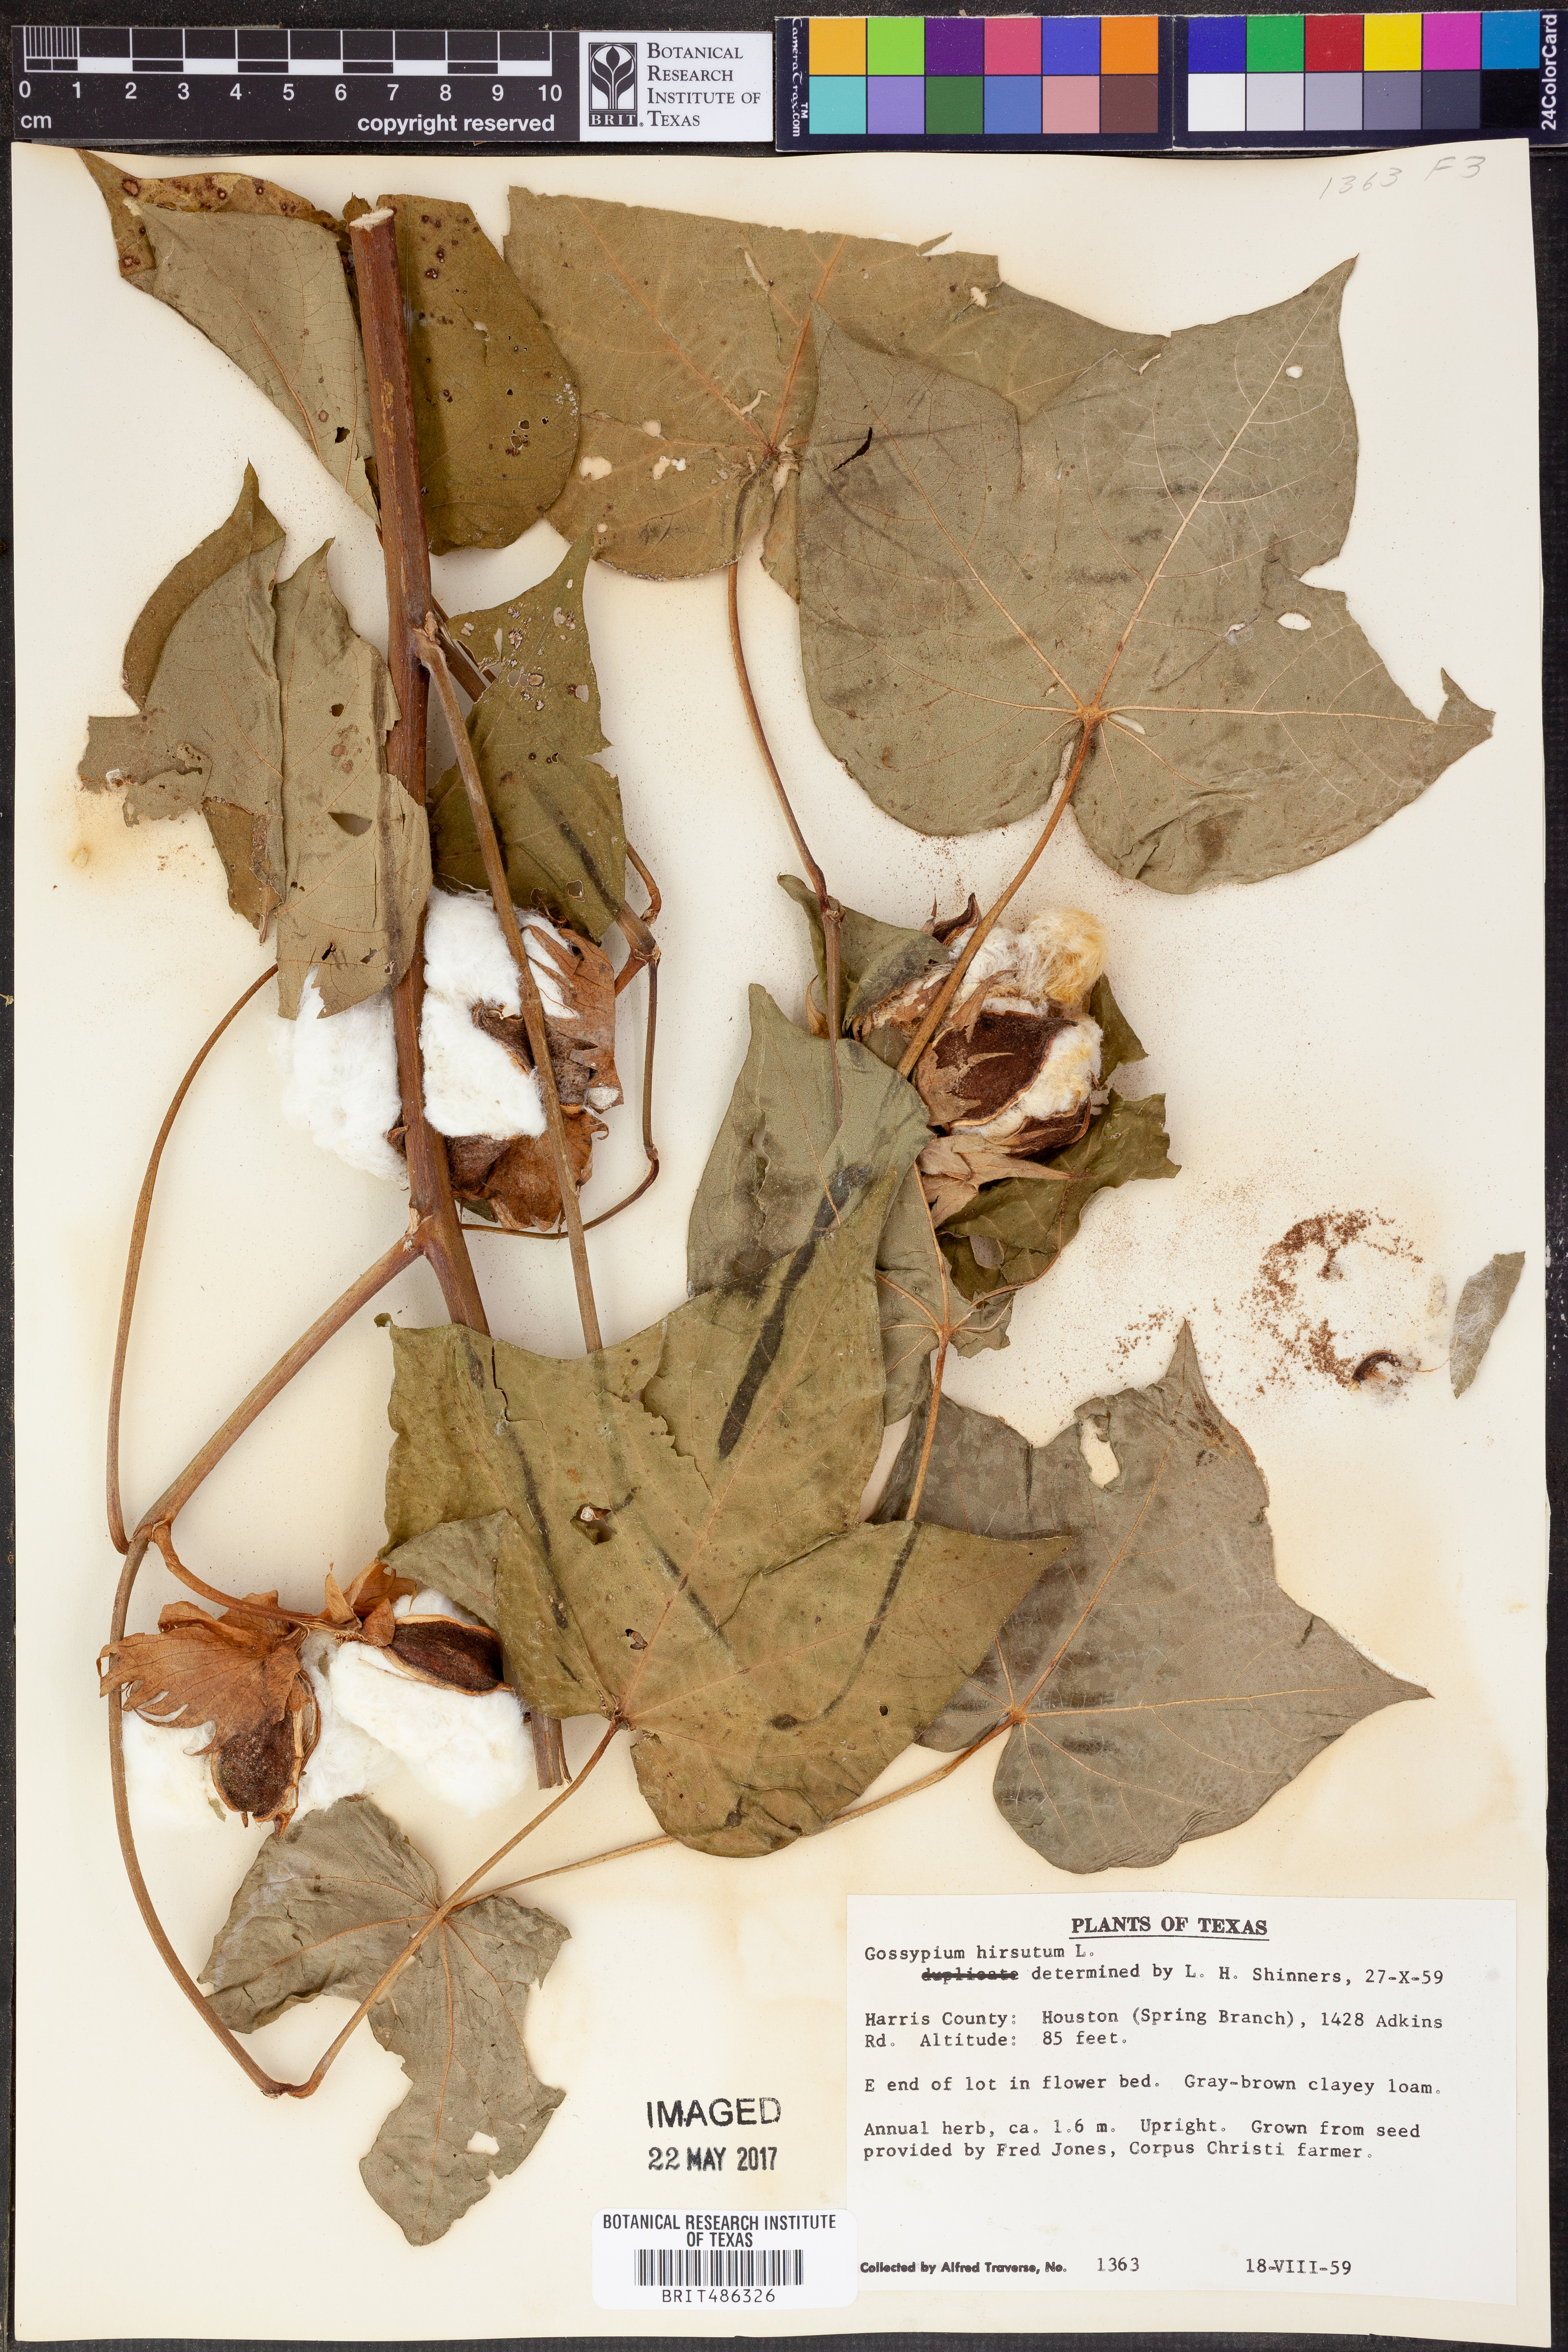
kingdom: Plantae
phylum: Tracheophyta
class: Magnoliopsida
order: Malvales
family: Malvaceae
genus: Gossypium
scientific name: Gossypium hirsutum
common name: Cotton
